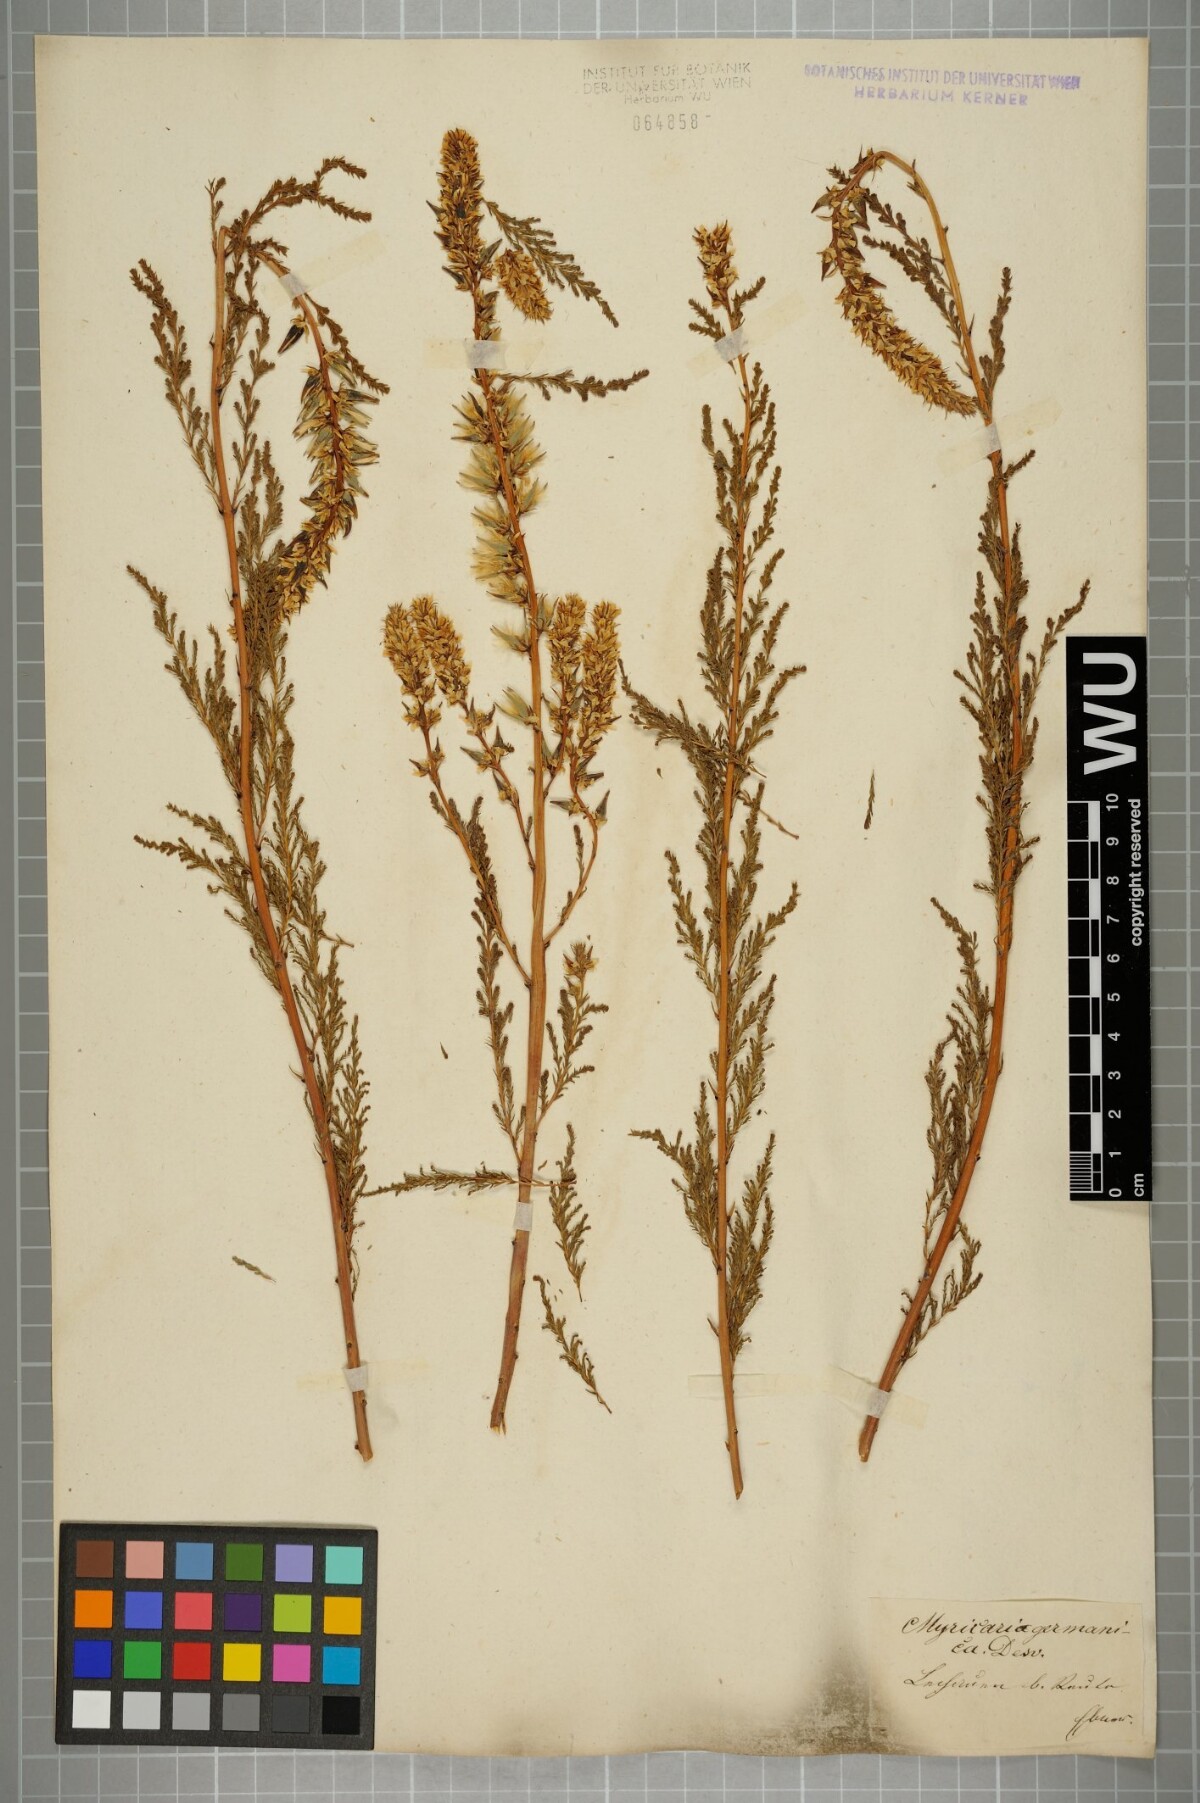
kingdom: Plantae
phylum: Tracheophyta
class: Magnoliopsida
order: Caryophyllales
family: Tamaricaceae
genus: Myricaria
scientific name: Myricaria germanica
